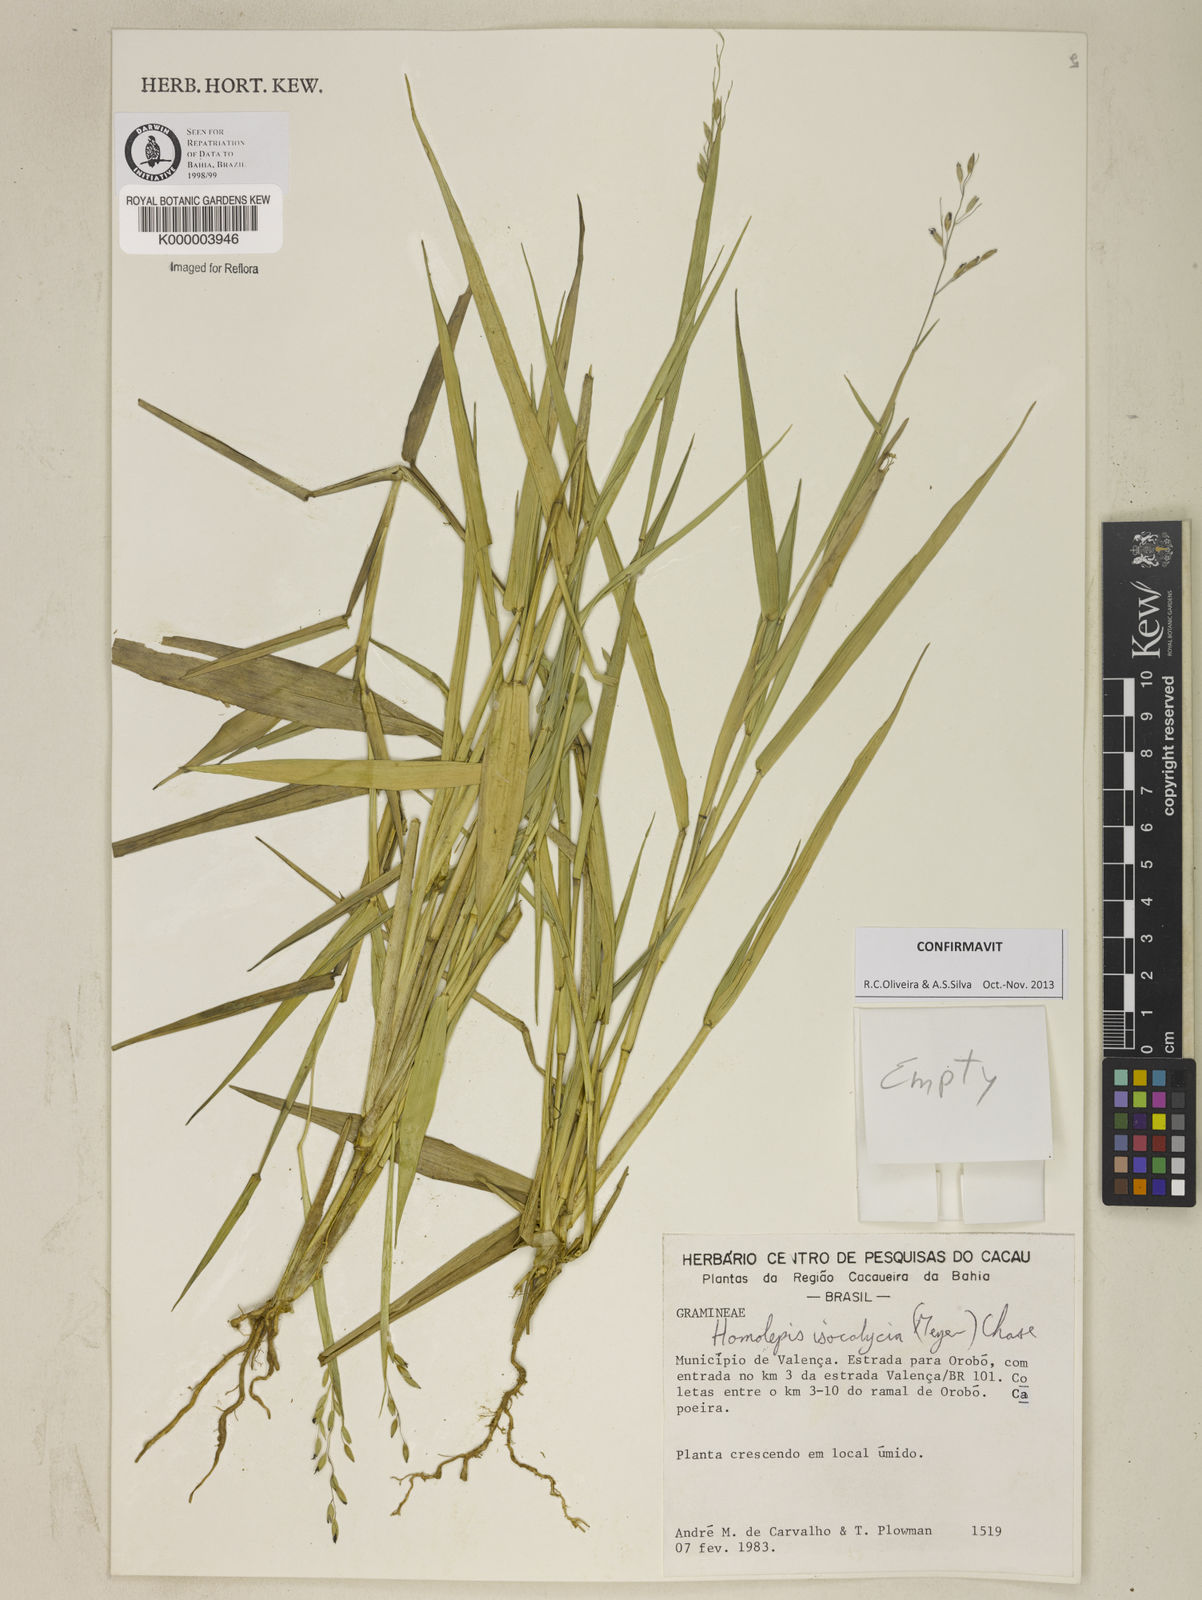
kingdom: Plantae
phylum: Tracheophyta
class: Liliopsida
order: Poales
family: Poaceae
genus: Homolepis
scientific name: Homolepis
